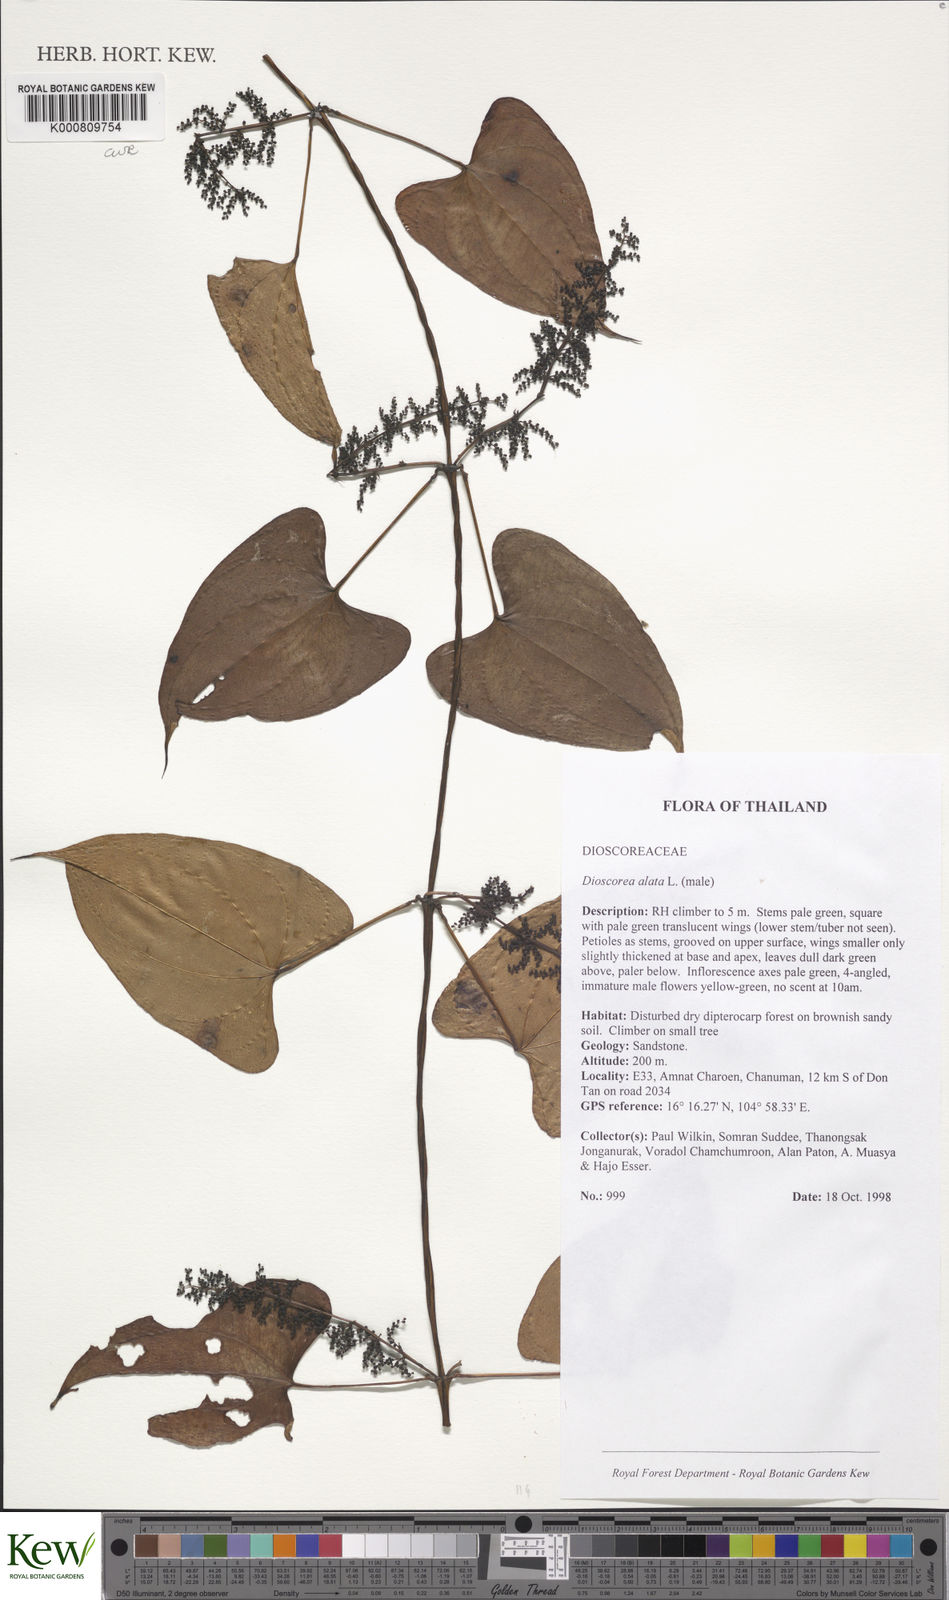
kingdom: Plantae
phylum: Tracheophyta
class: Liliopsida
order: Dioscoreales
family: Dioscoreaceae
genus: Dioscorea
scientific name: Dioscorea alata
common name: Water yam
